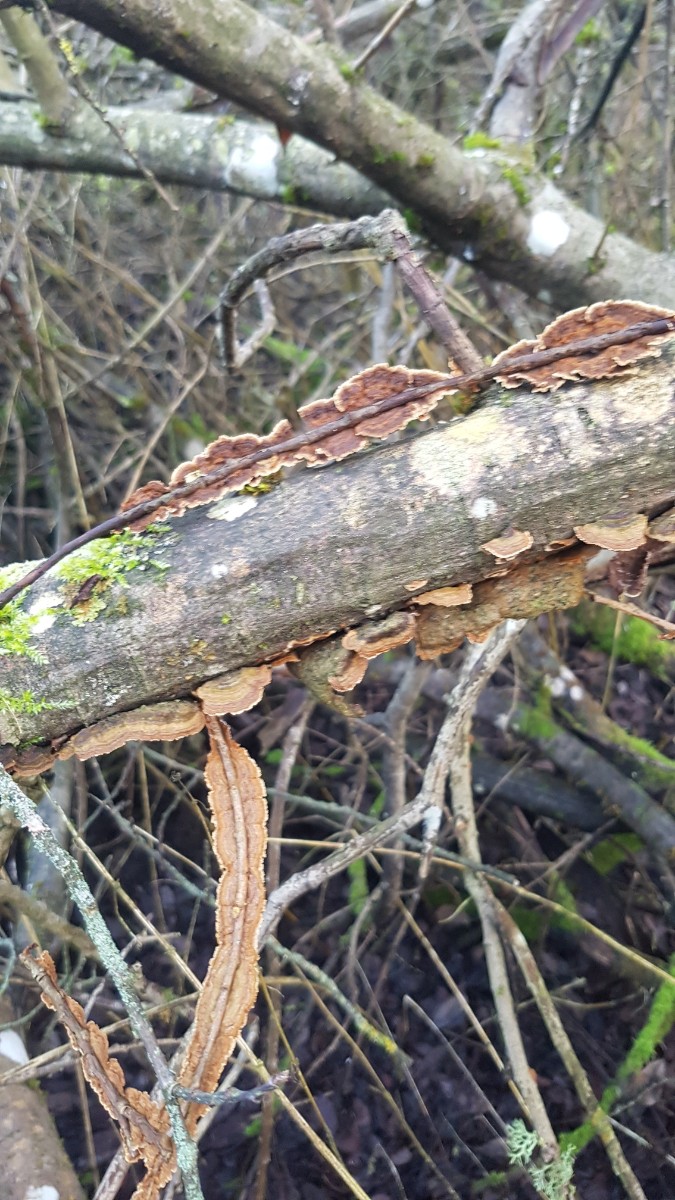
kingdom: Fungi
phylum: Basidiomycota
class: Agaricomycetes
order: Hymenochaetales
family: Hymenochaetaceae
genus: Hydnoporia
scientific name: Hydnoporia tabacina
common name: tobaksbrun ruslædersvamp
